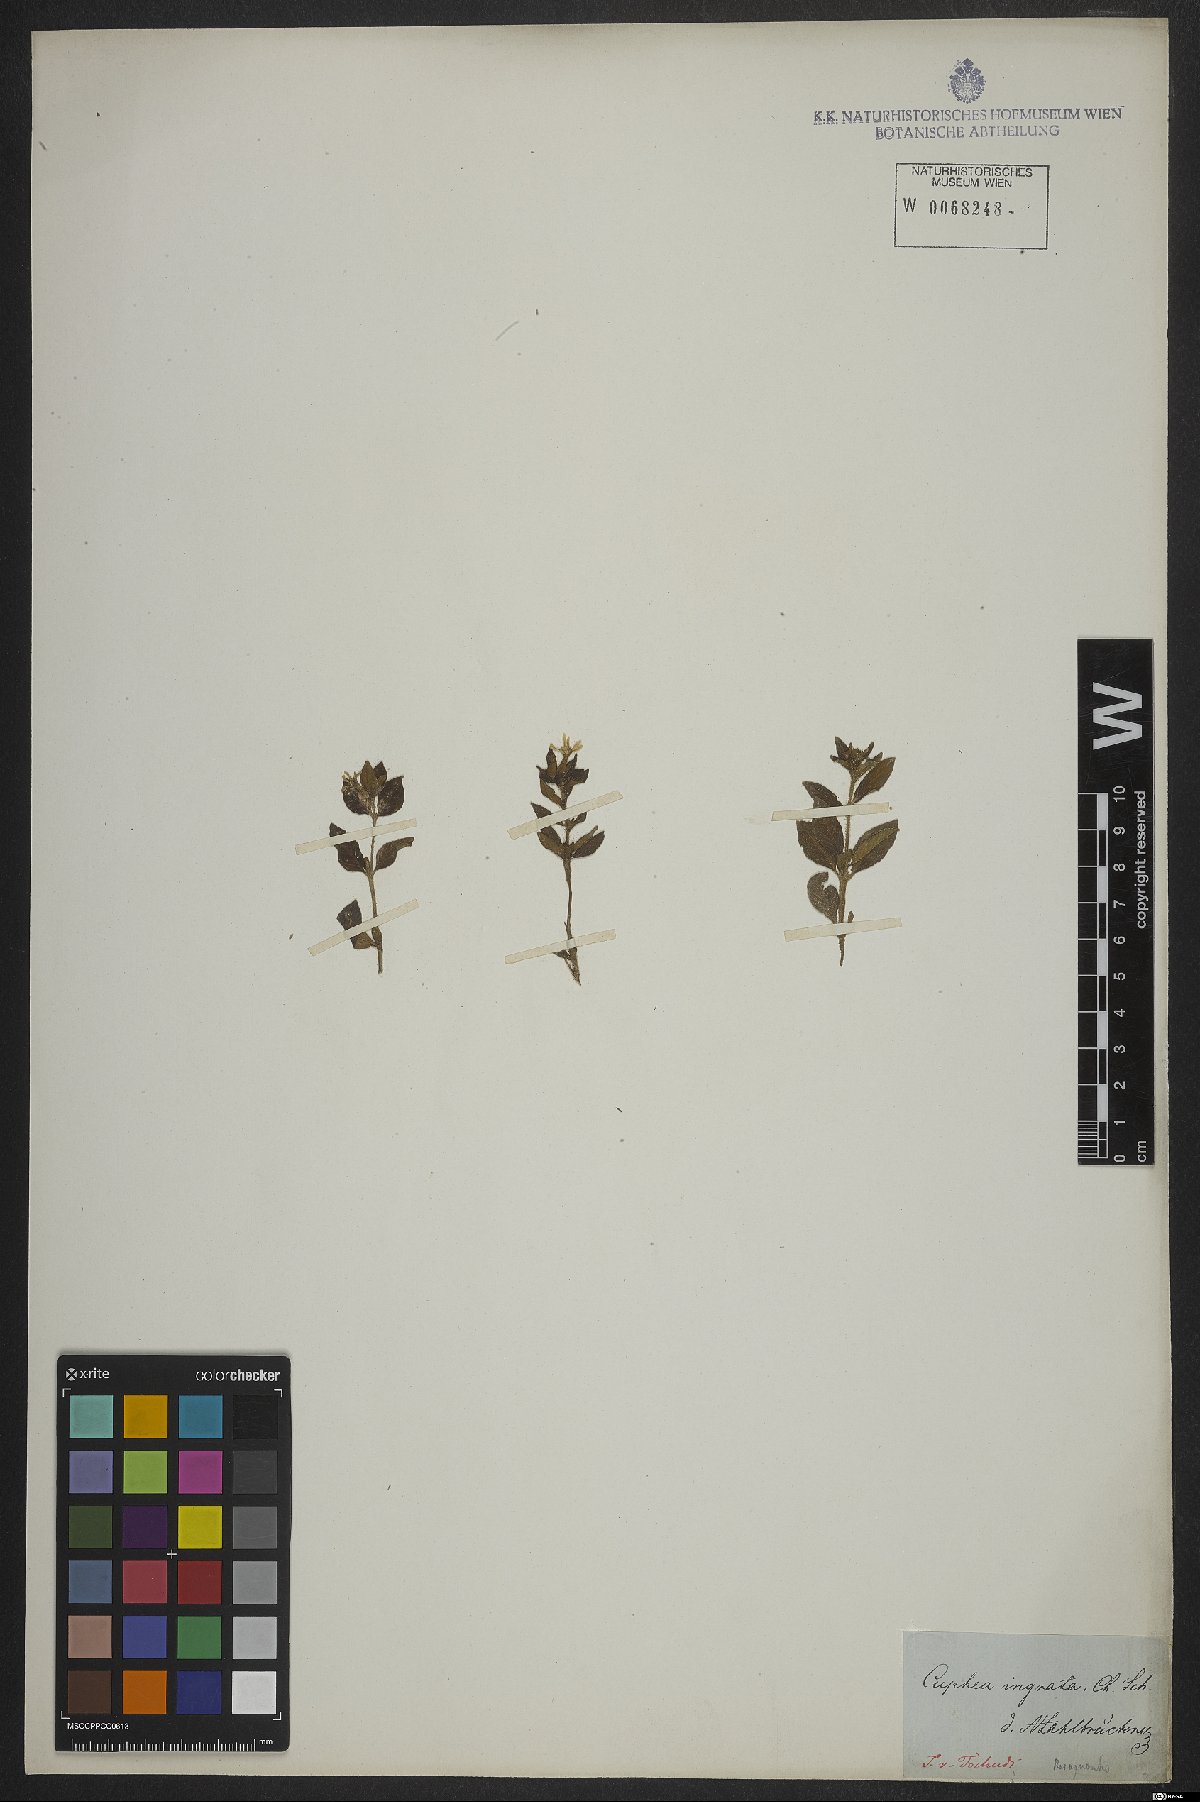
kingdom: Plantae
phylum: Tracheophyta
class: Magnoliopsida
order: Myrtales
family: Lythraceae
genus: Cuphea
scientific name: Cuphea sessiliflora
